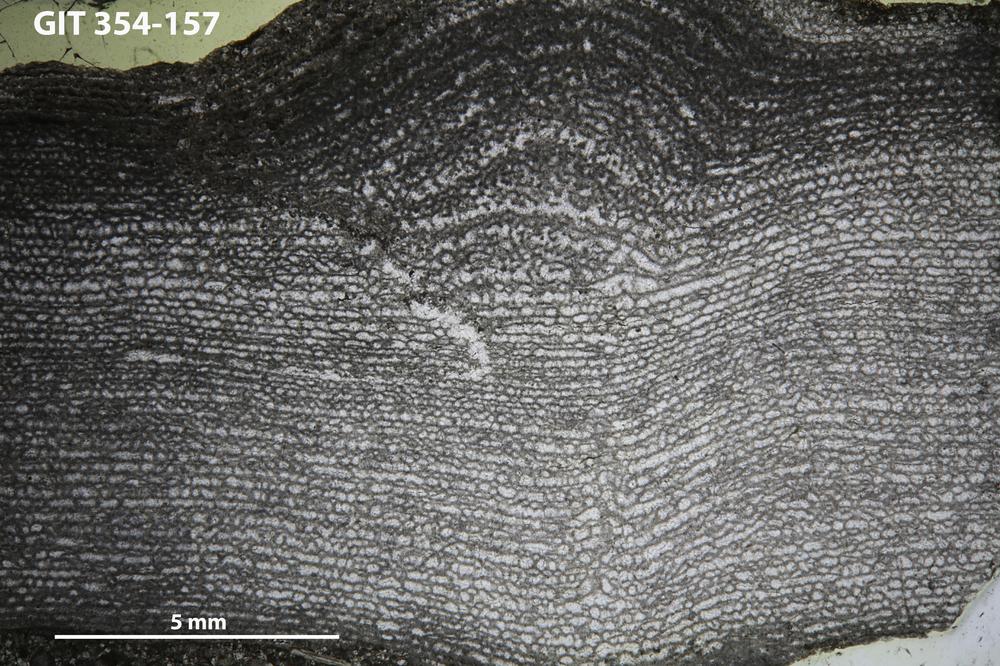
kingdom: Animalia
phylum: Porifera
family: Clathrodictyidae
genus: Clathrodictyon
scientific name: Clathrodictyon boreale
